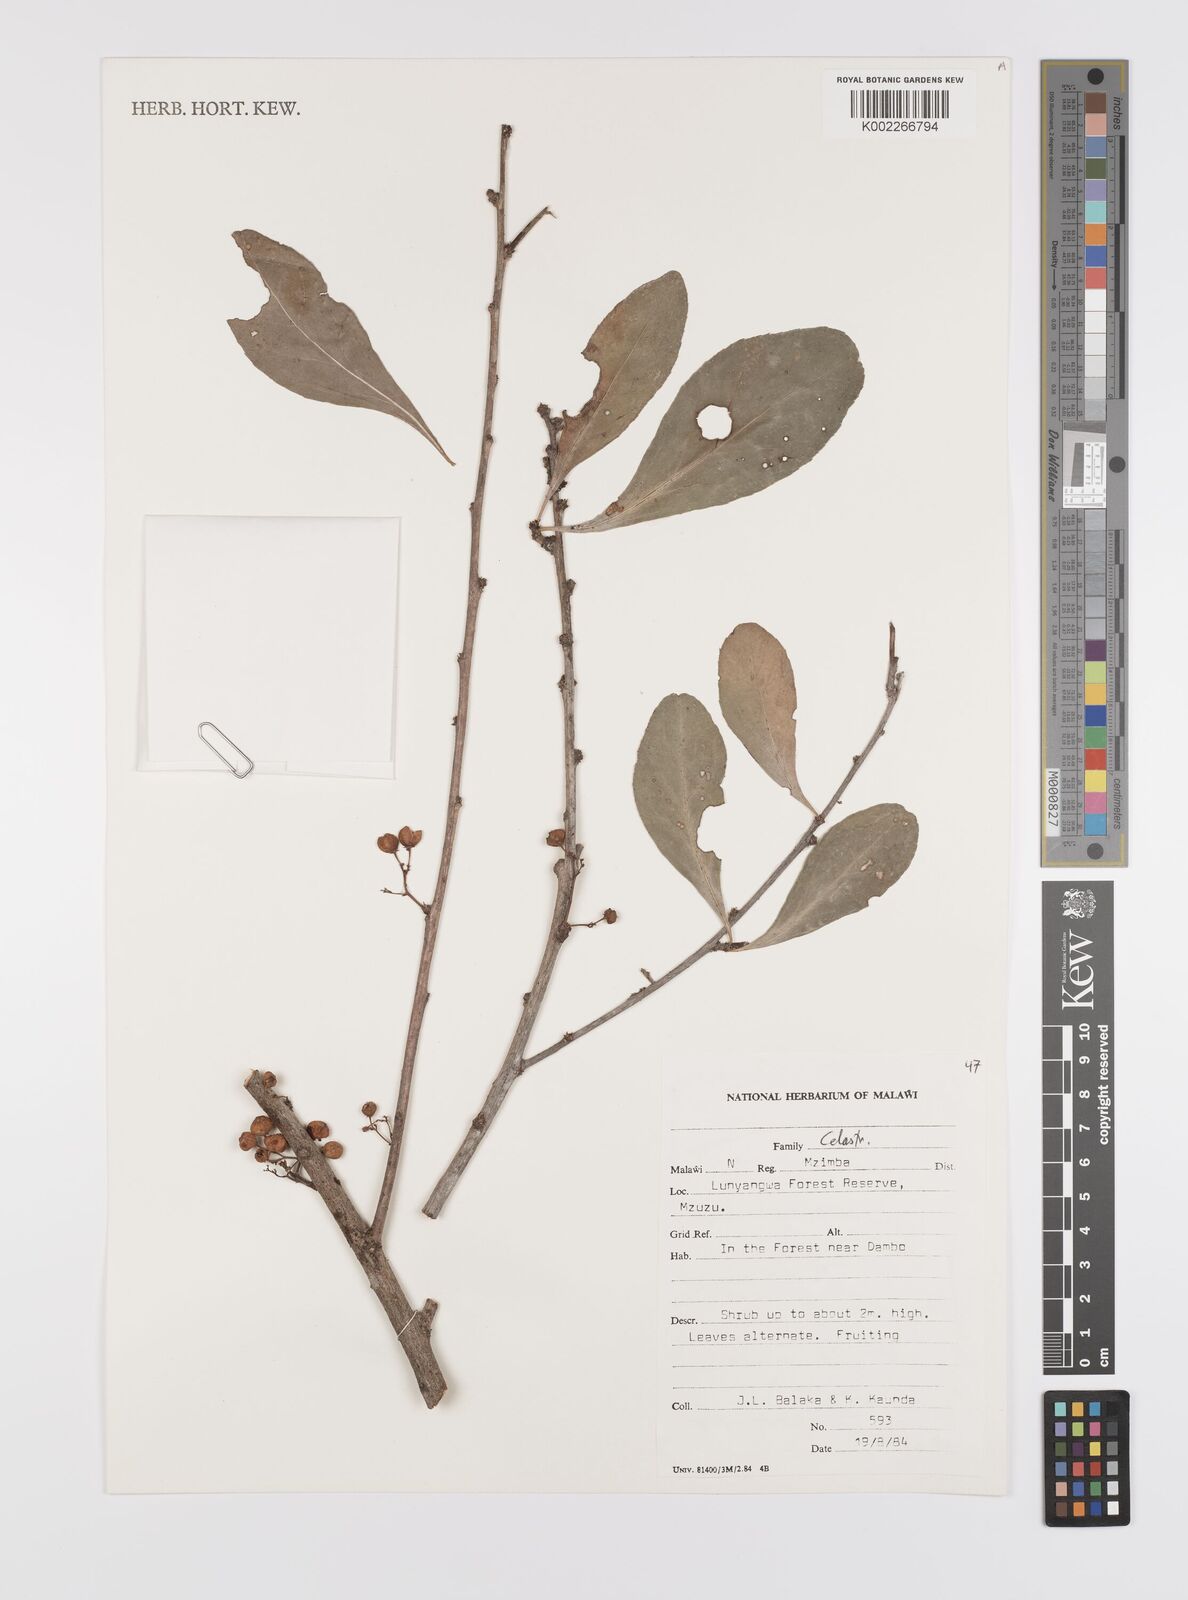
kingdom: Plantae
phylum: Tracheophyta
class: Magnoliopsida
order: Celastrales
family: Celastraceae
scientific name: Celastraceae
